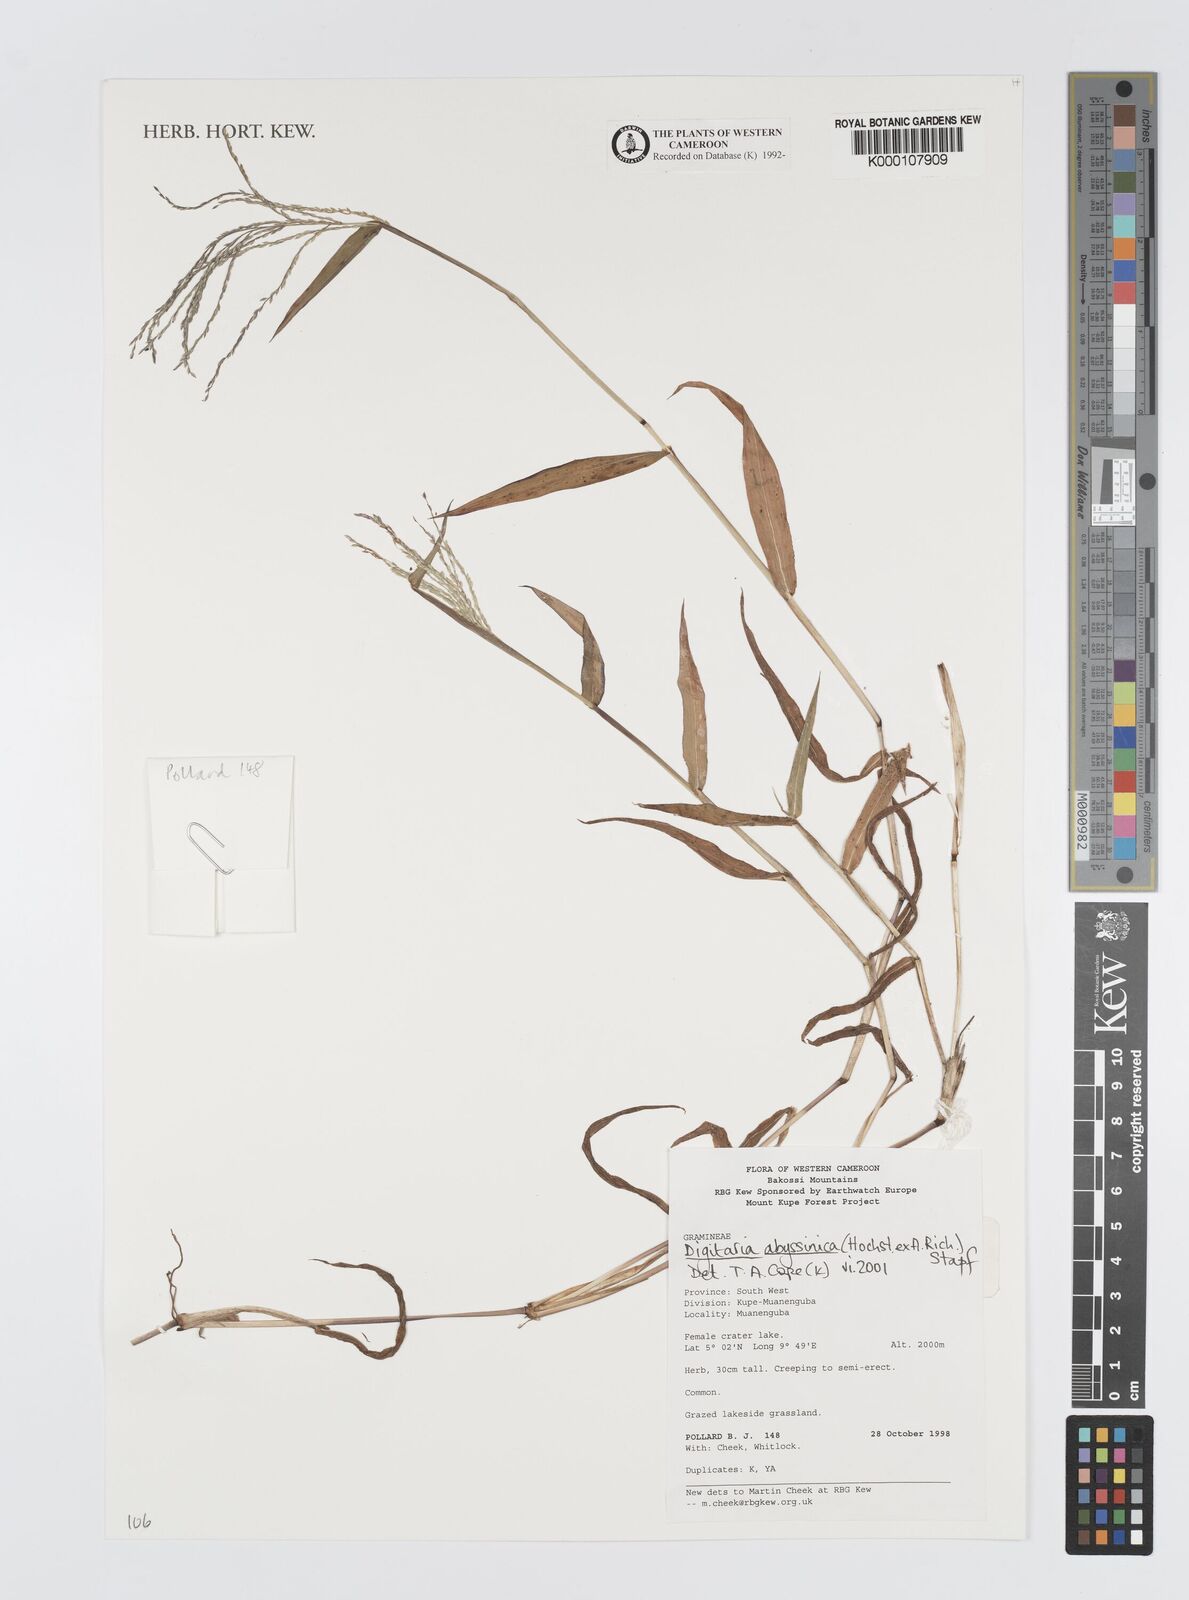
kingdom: Plantae
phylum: Tracheophyta
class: Liliopsida
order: Poales
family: Poaceae
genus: Digitaria
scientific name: Digitaria abyssinica
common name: African couchgrass
